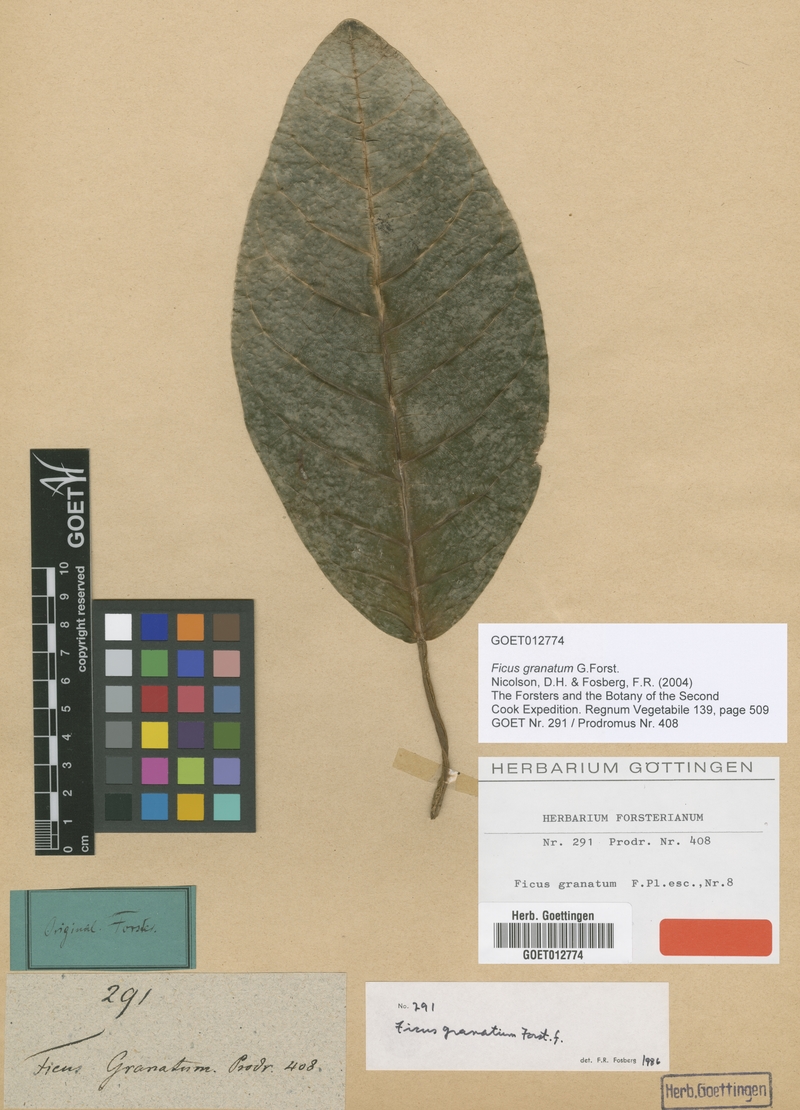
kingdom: Plantae
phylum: Tracheophyta
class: Magnoliopsida
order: Rosales
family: Moraceae
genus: Ficus
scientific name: Ficus granatum
